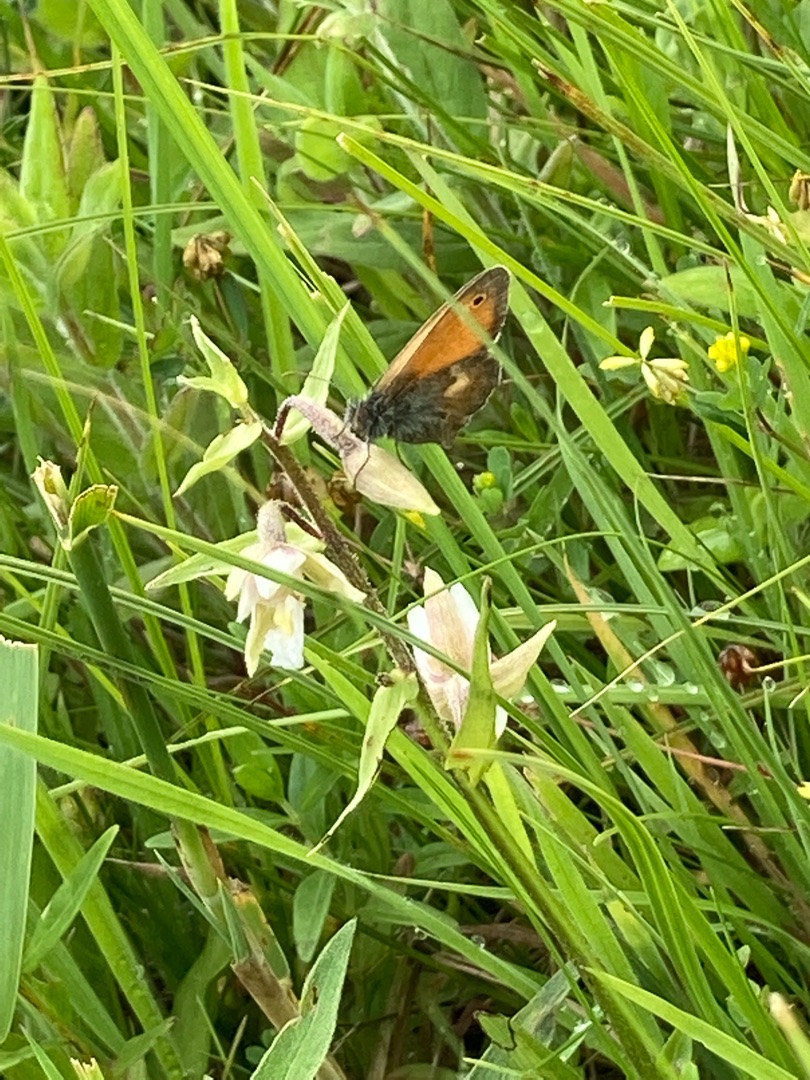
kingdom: Animalia
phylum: Arthropoda
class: Insecta
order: Lepidoptera
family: Nymphalidae
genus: Coenonympha
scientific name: Coenonympha pamphilus
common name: Okkergul randøje
